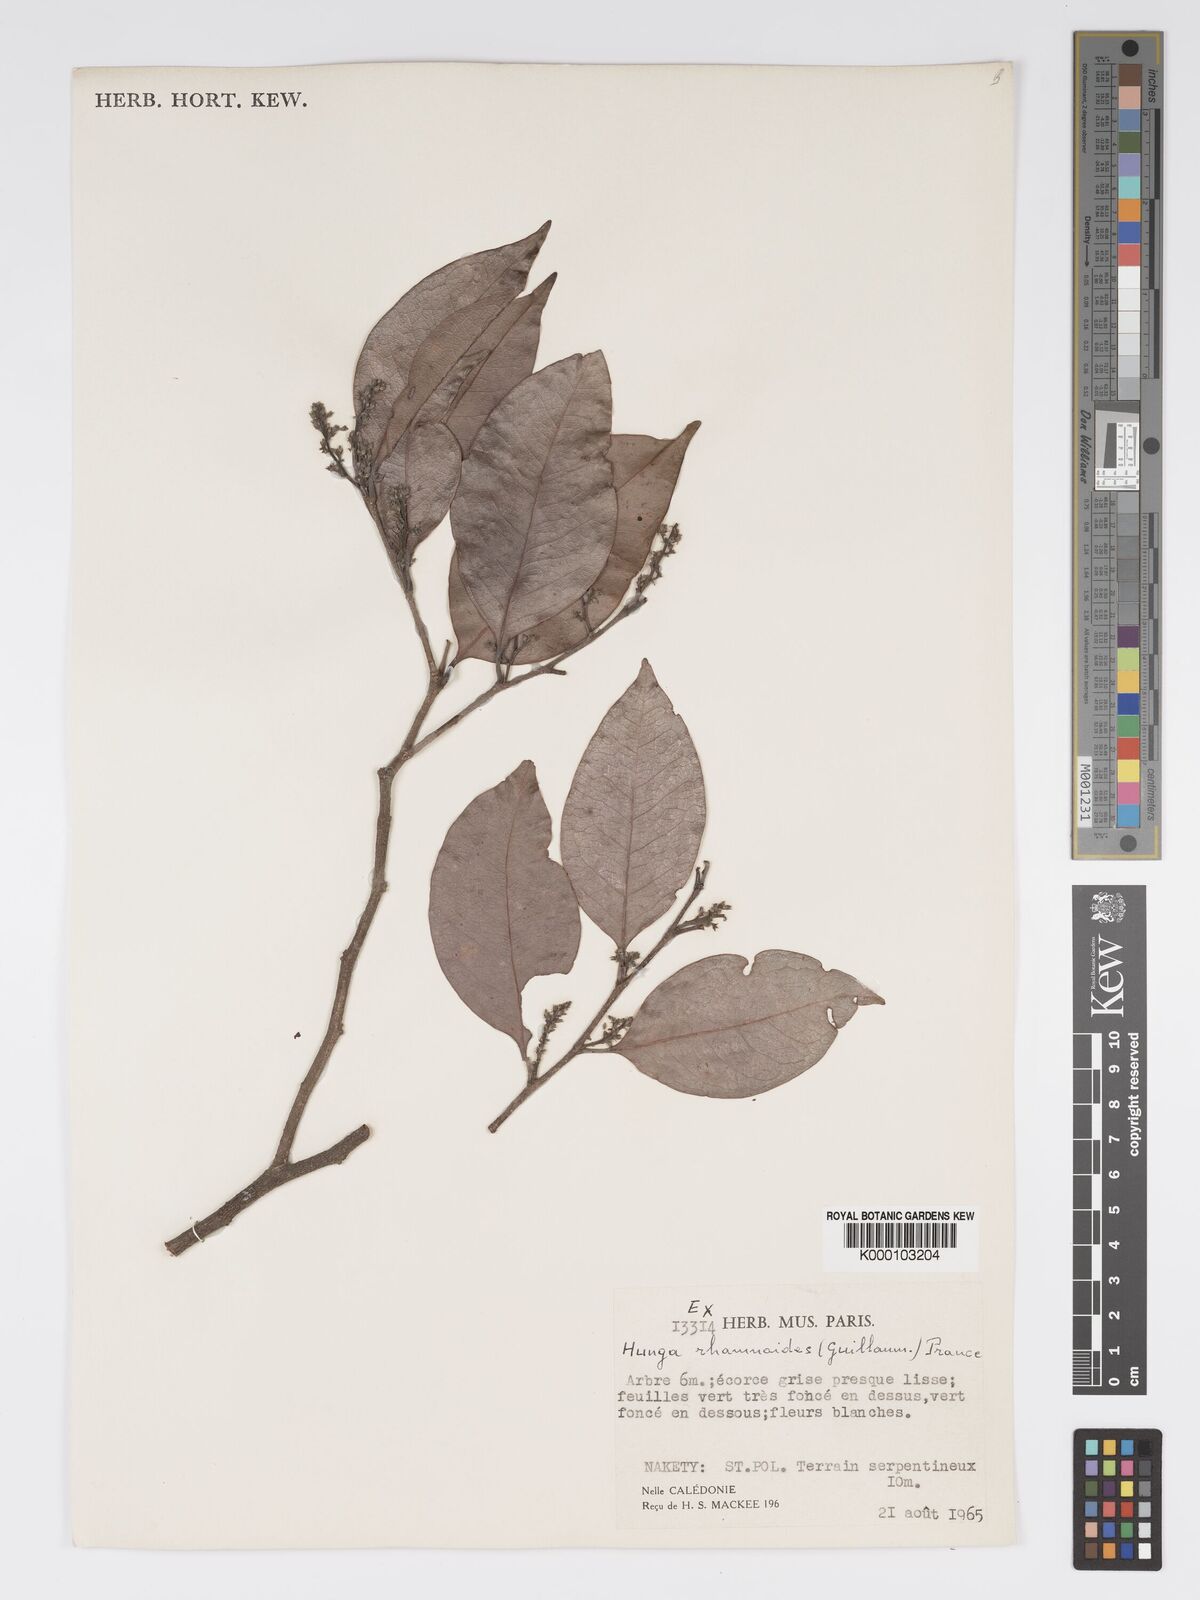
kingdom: Plantae
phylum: Tracheophyta
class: Magnoliopsida
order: Malpighiales
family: Chrysobalanaceae
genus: Hunga
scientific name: Hunga rhamnoides
